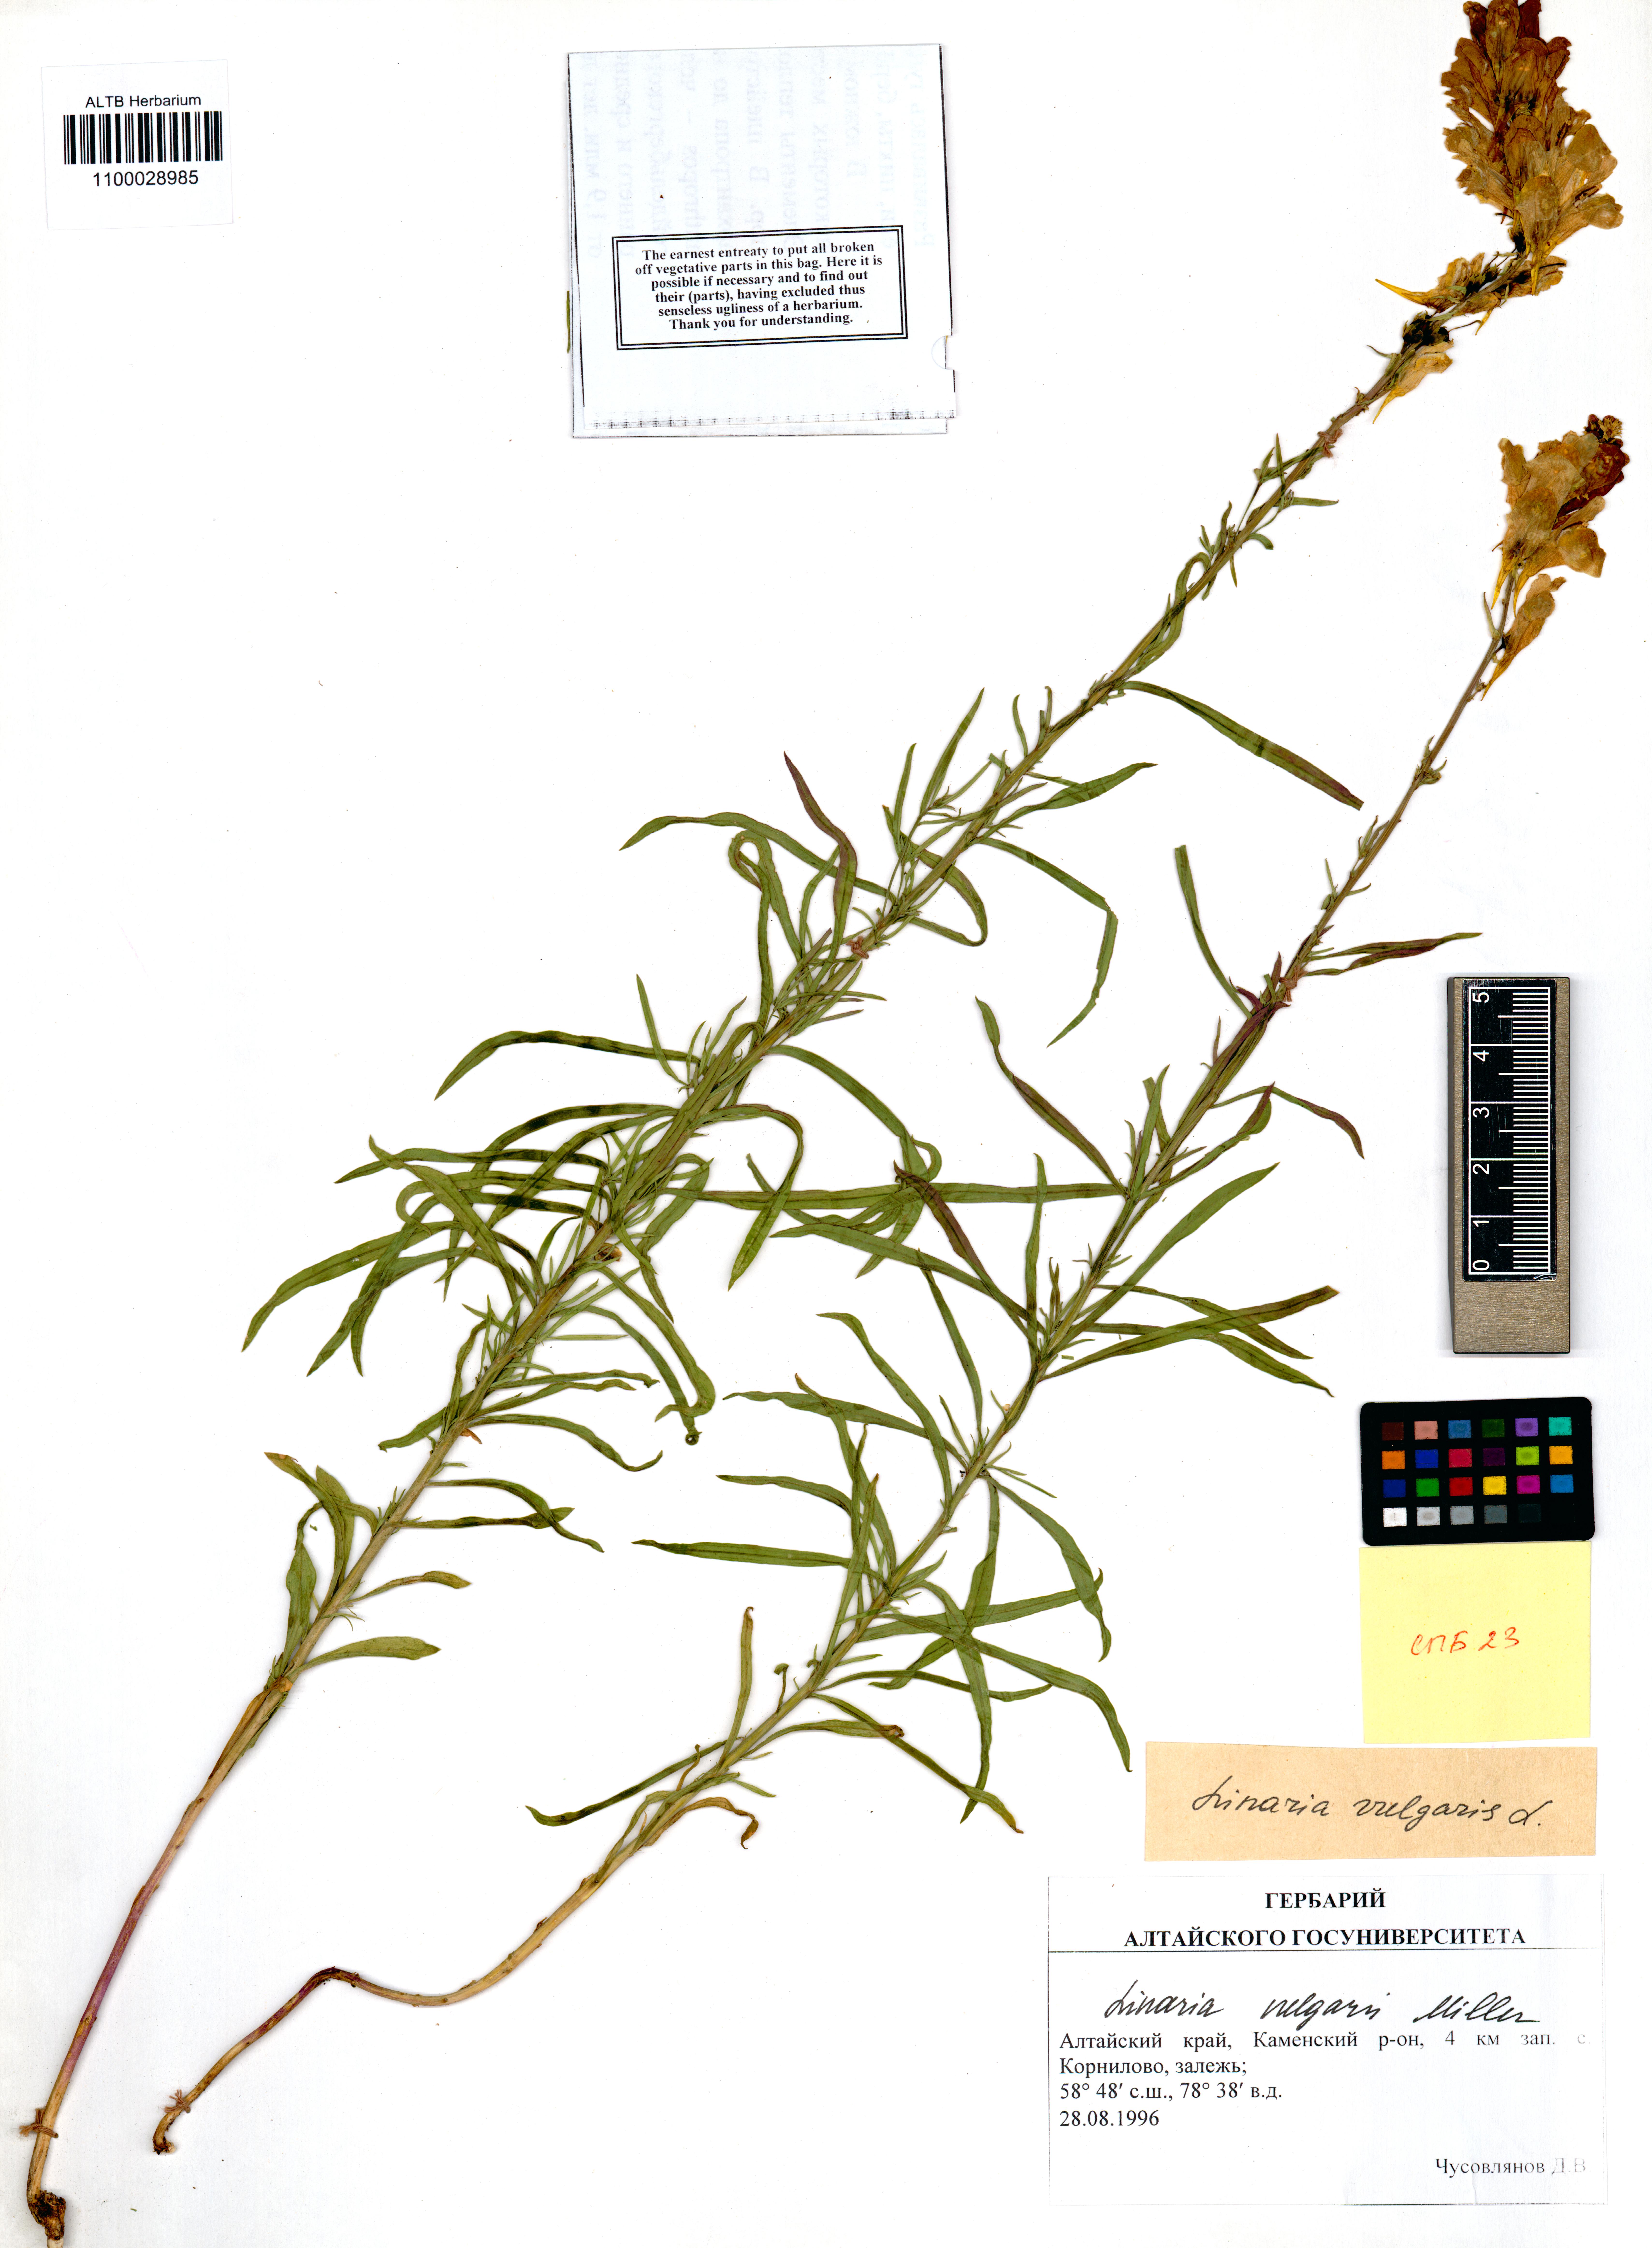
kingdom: Plantae
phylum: Tracheophyta
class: Magnoliopsida
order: Lamiales
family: Plantaginaceae
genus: Linaria
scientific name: Linaria vulgaris
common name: Butter and eggs
